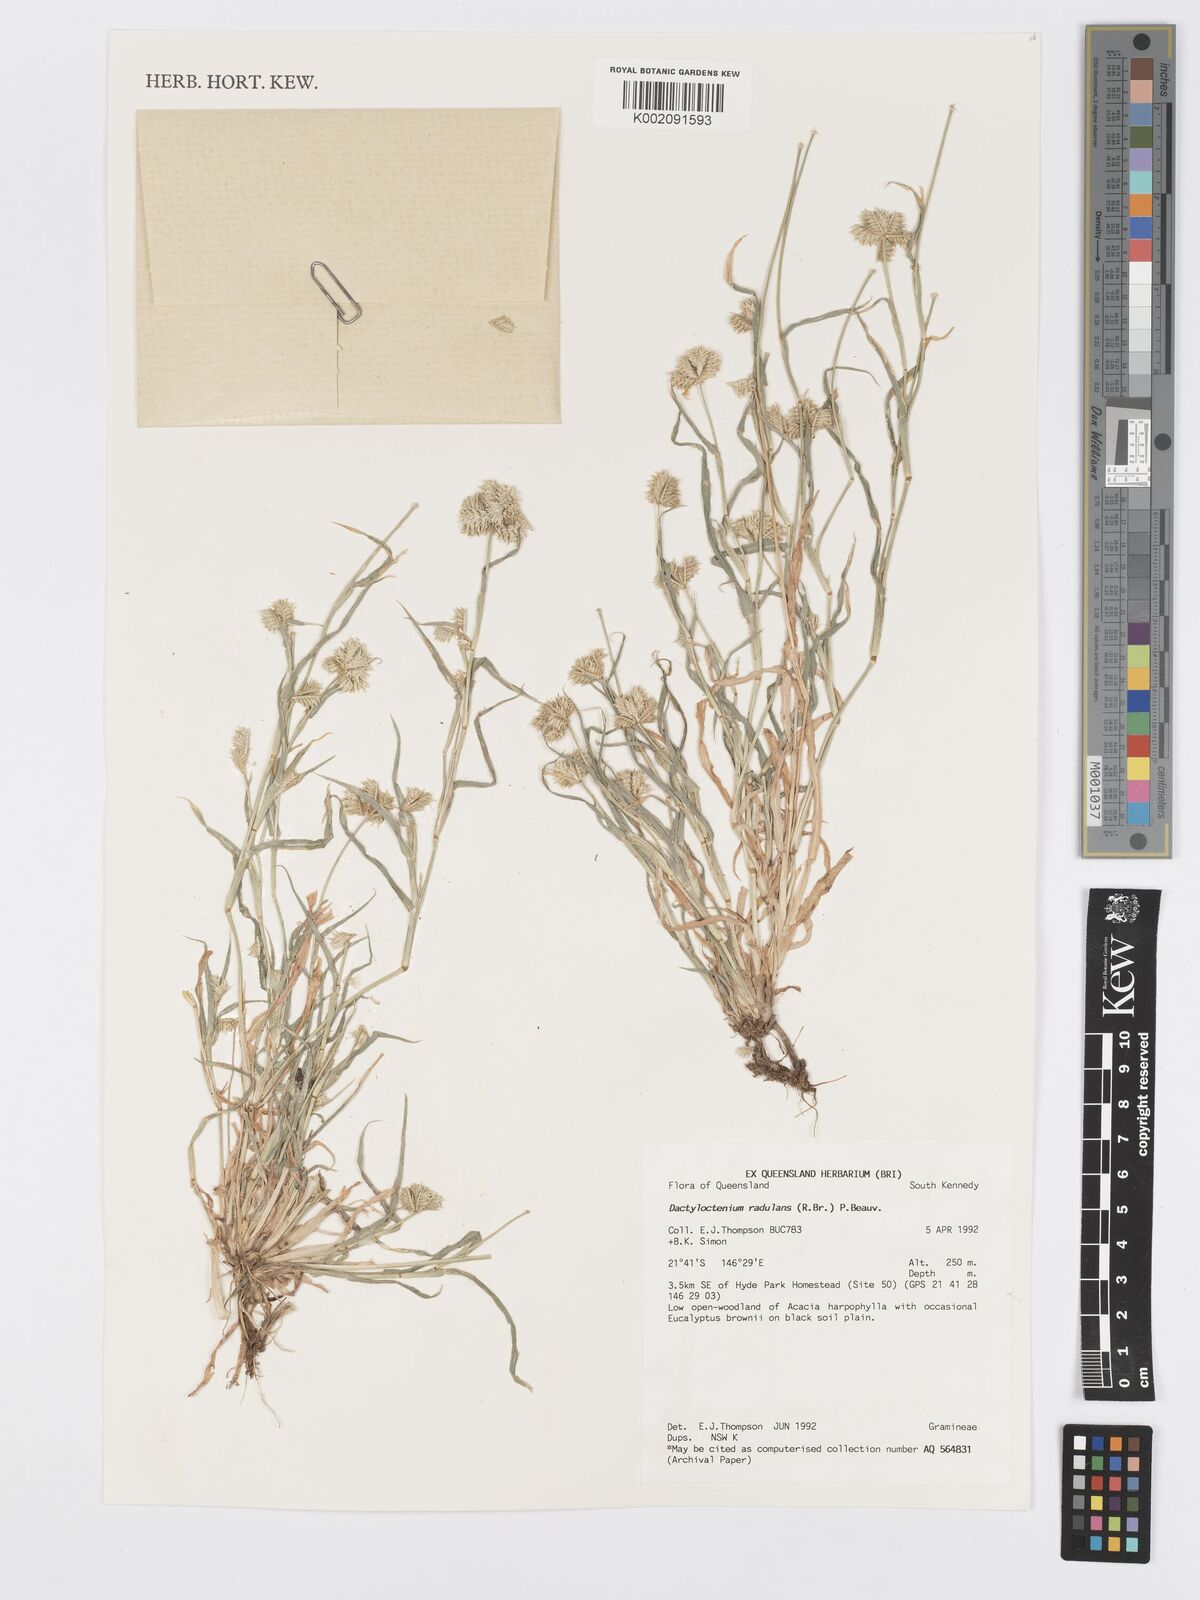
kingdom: Plantae
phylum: Tracheophyta
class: Liliopsida
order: Poales
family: Poaceae
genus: Dactyloctenium
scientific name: Dactyloctenium radulans
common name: Button-grass
